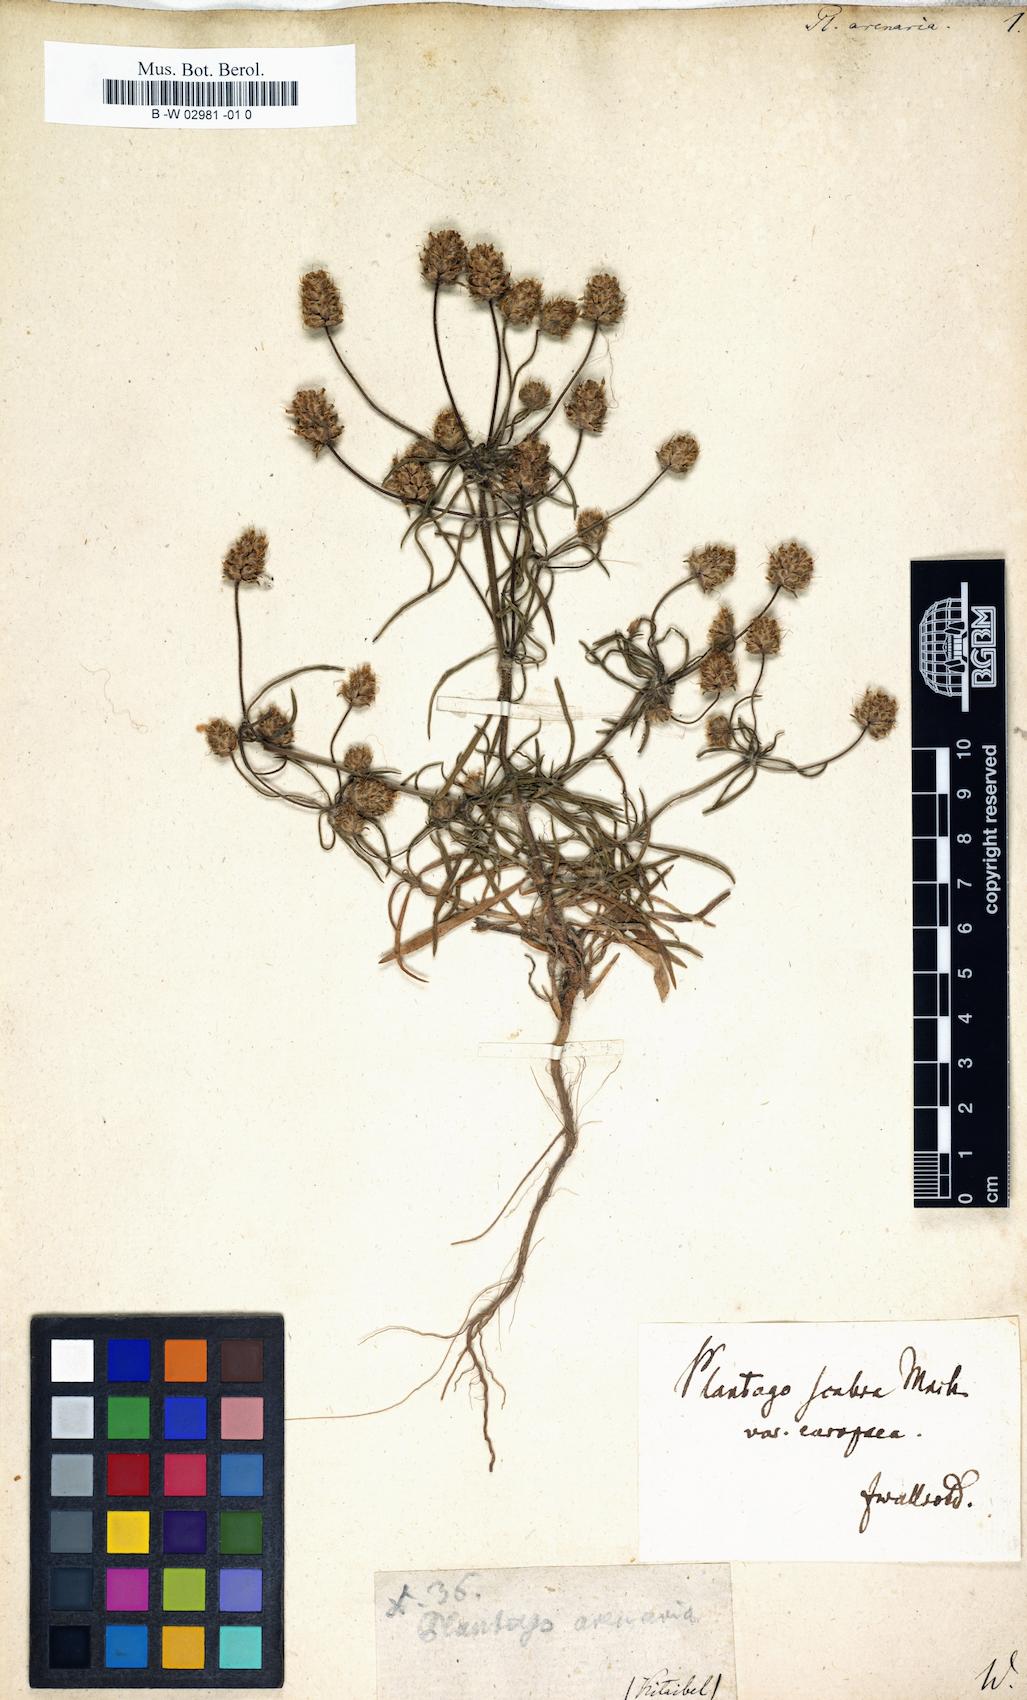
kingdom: Plantae
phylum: Tracheophyta
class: Magnoliopsida
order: Lamiales
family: Plantaginaceae
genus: Plantago
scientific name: Plantago arenaria
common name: Branched plantain
